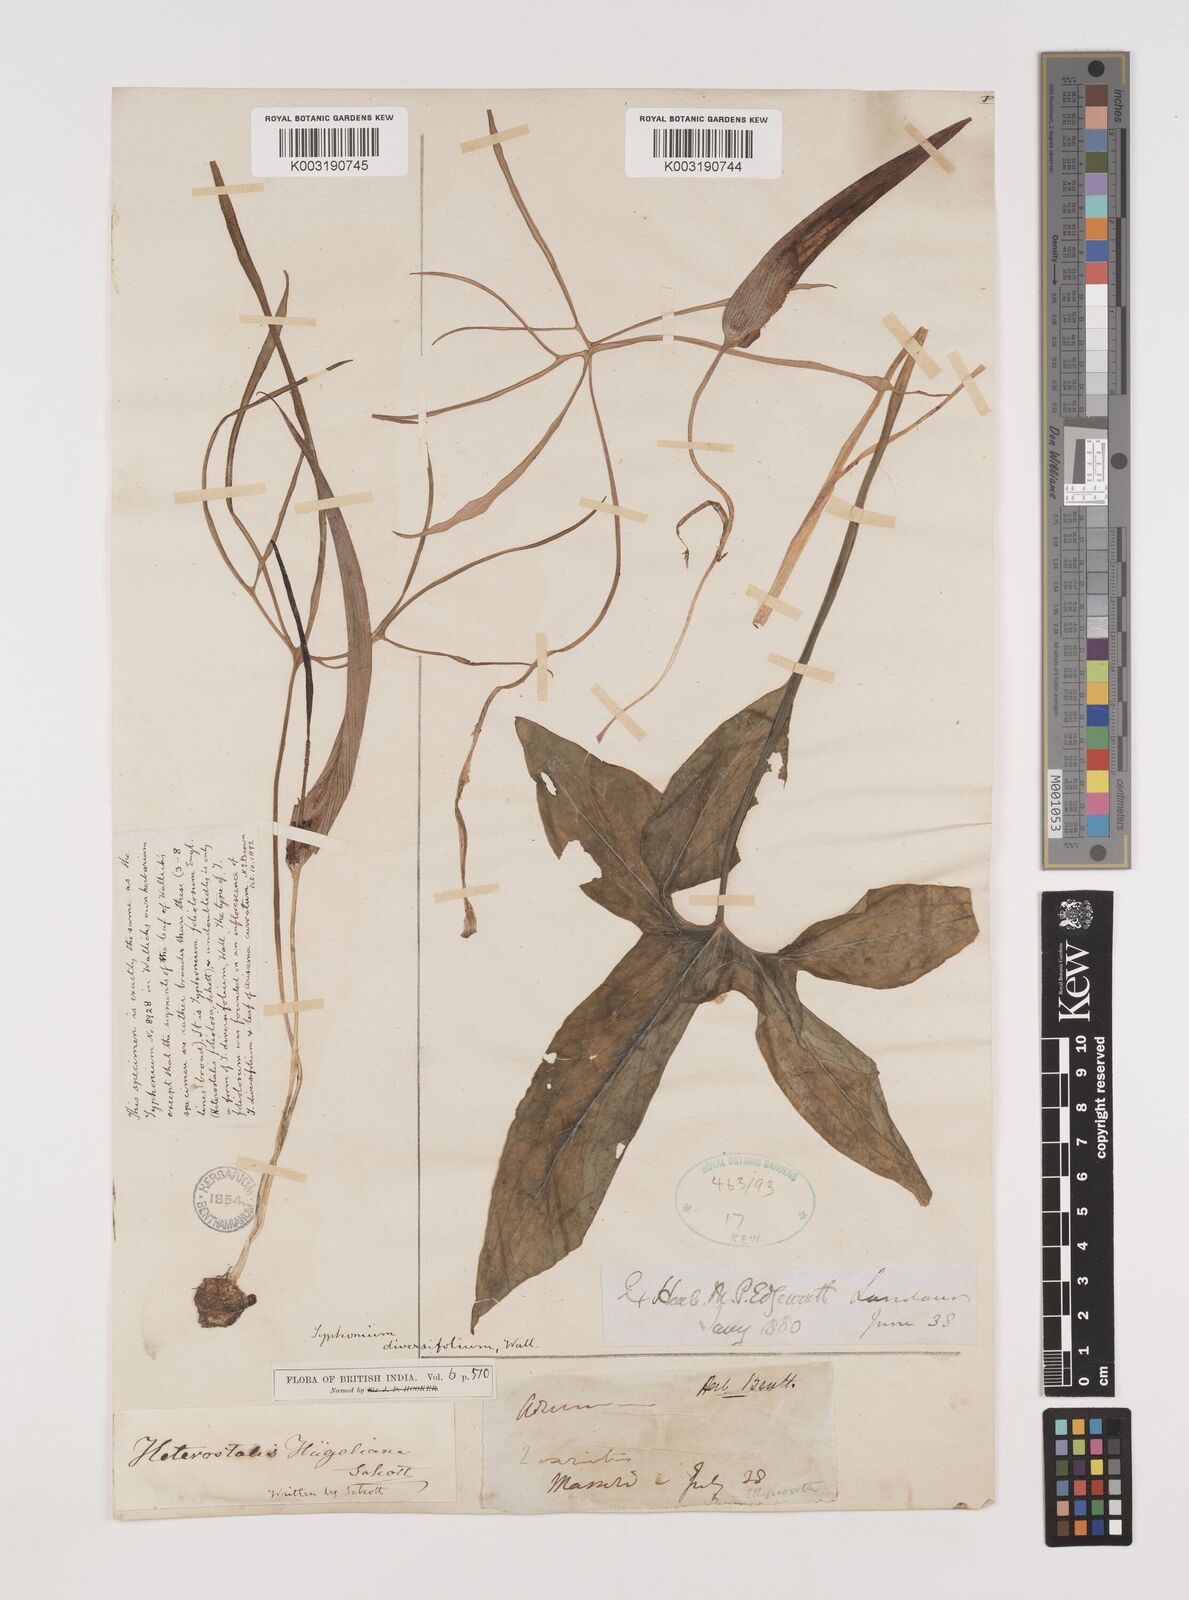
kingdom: Plantae
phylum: Tracheophyta
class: Liliopsida
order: Alismatales
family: Araceae
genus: Sauromatum
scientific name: Sauromatum diversifolium
